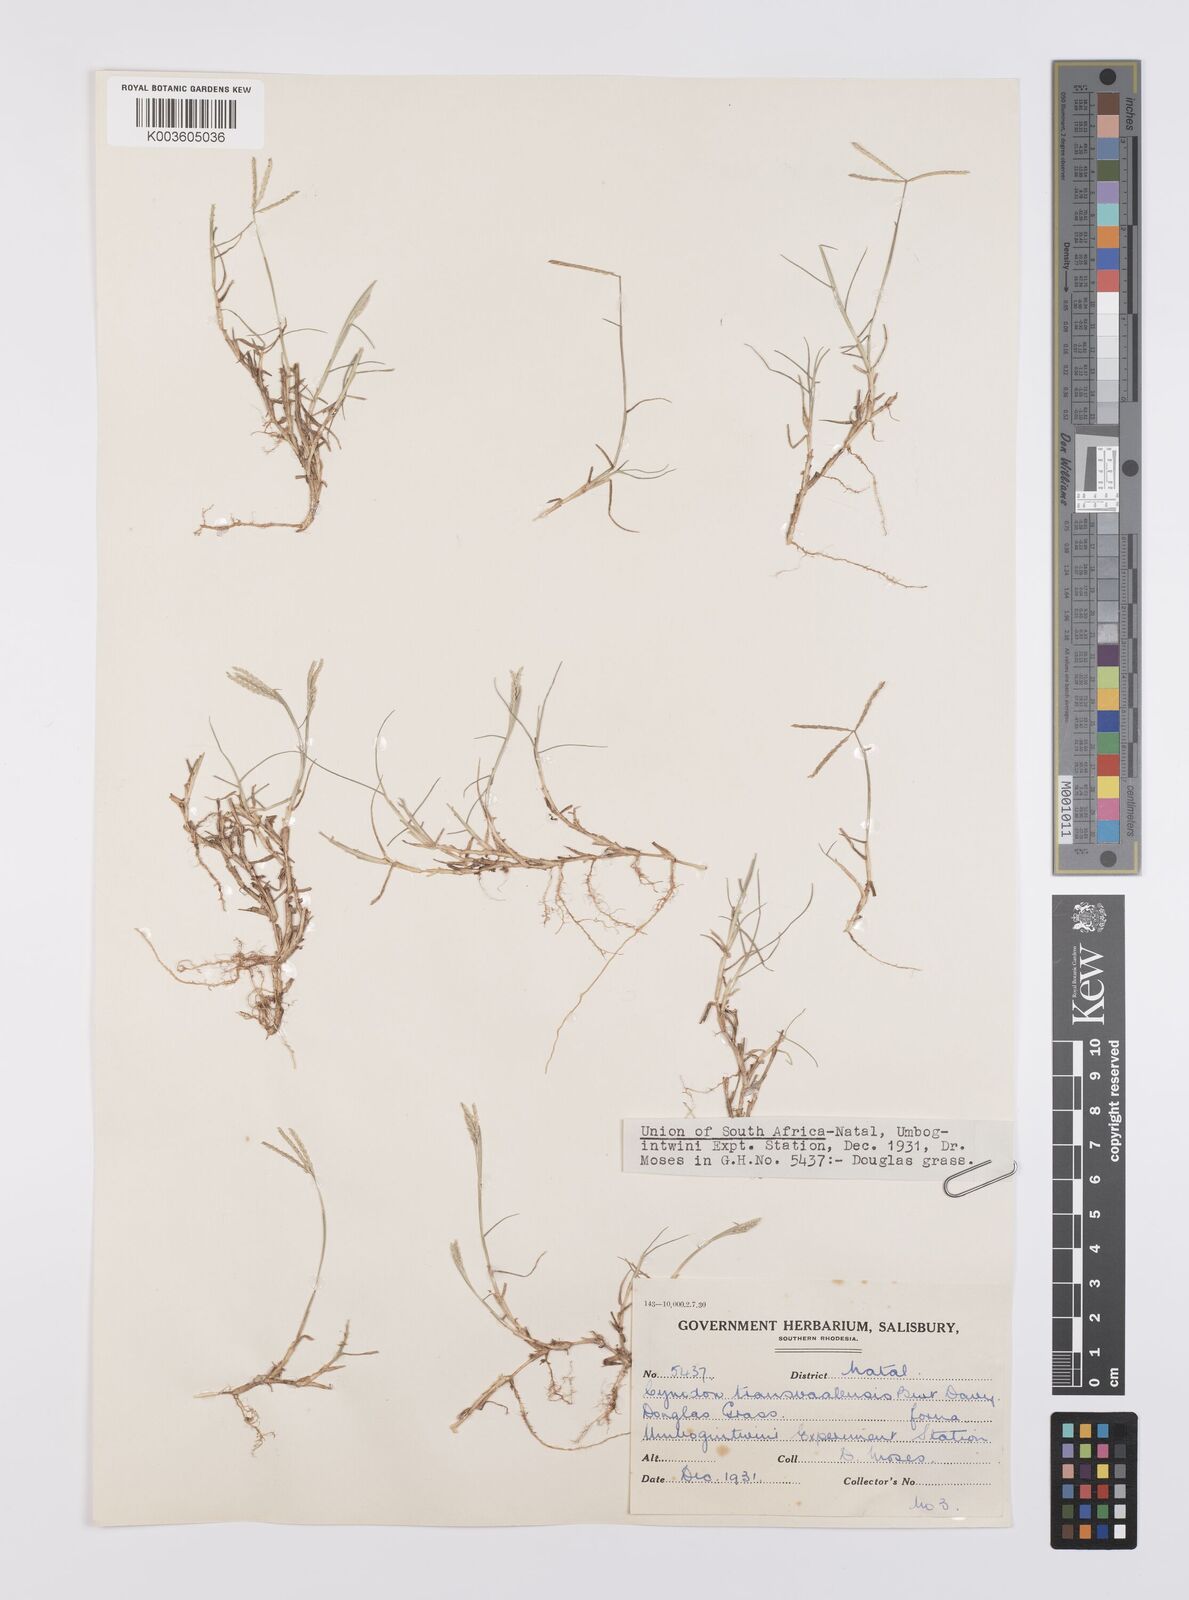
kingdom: Plantae
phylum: Tracheophyta
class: Liliopsida
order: Poales
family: Poaceae
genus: Cynodon
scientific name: Cynodon transvaalensis
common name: African bermuda grass
